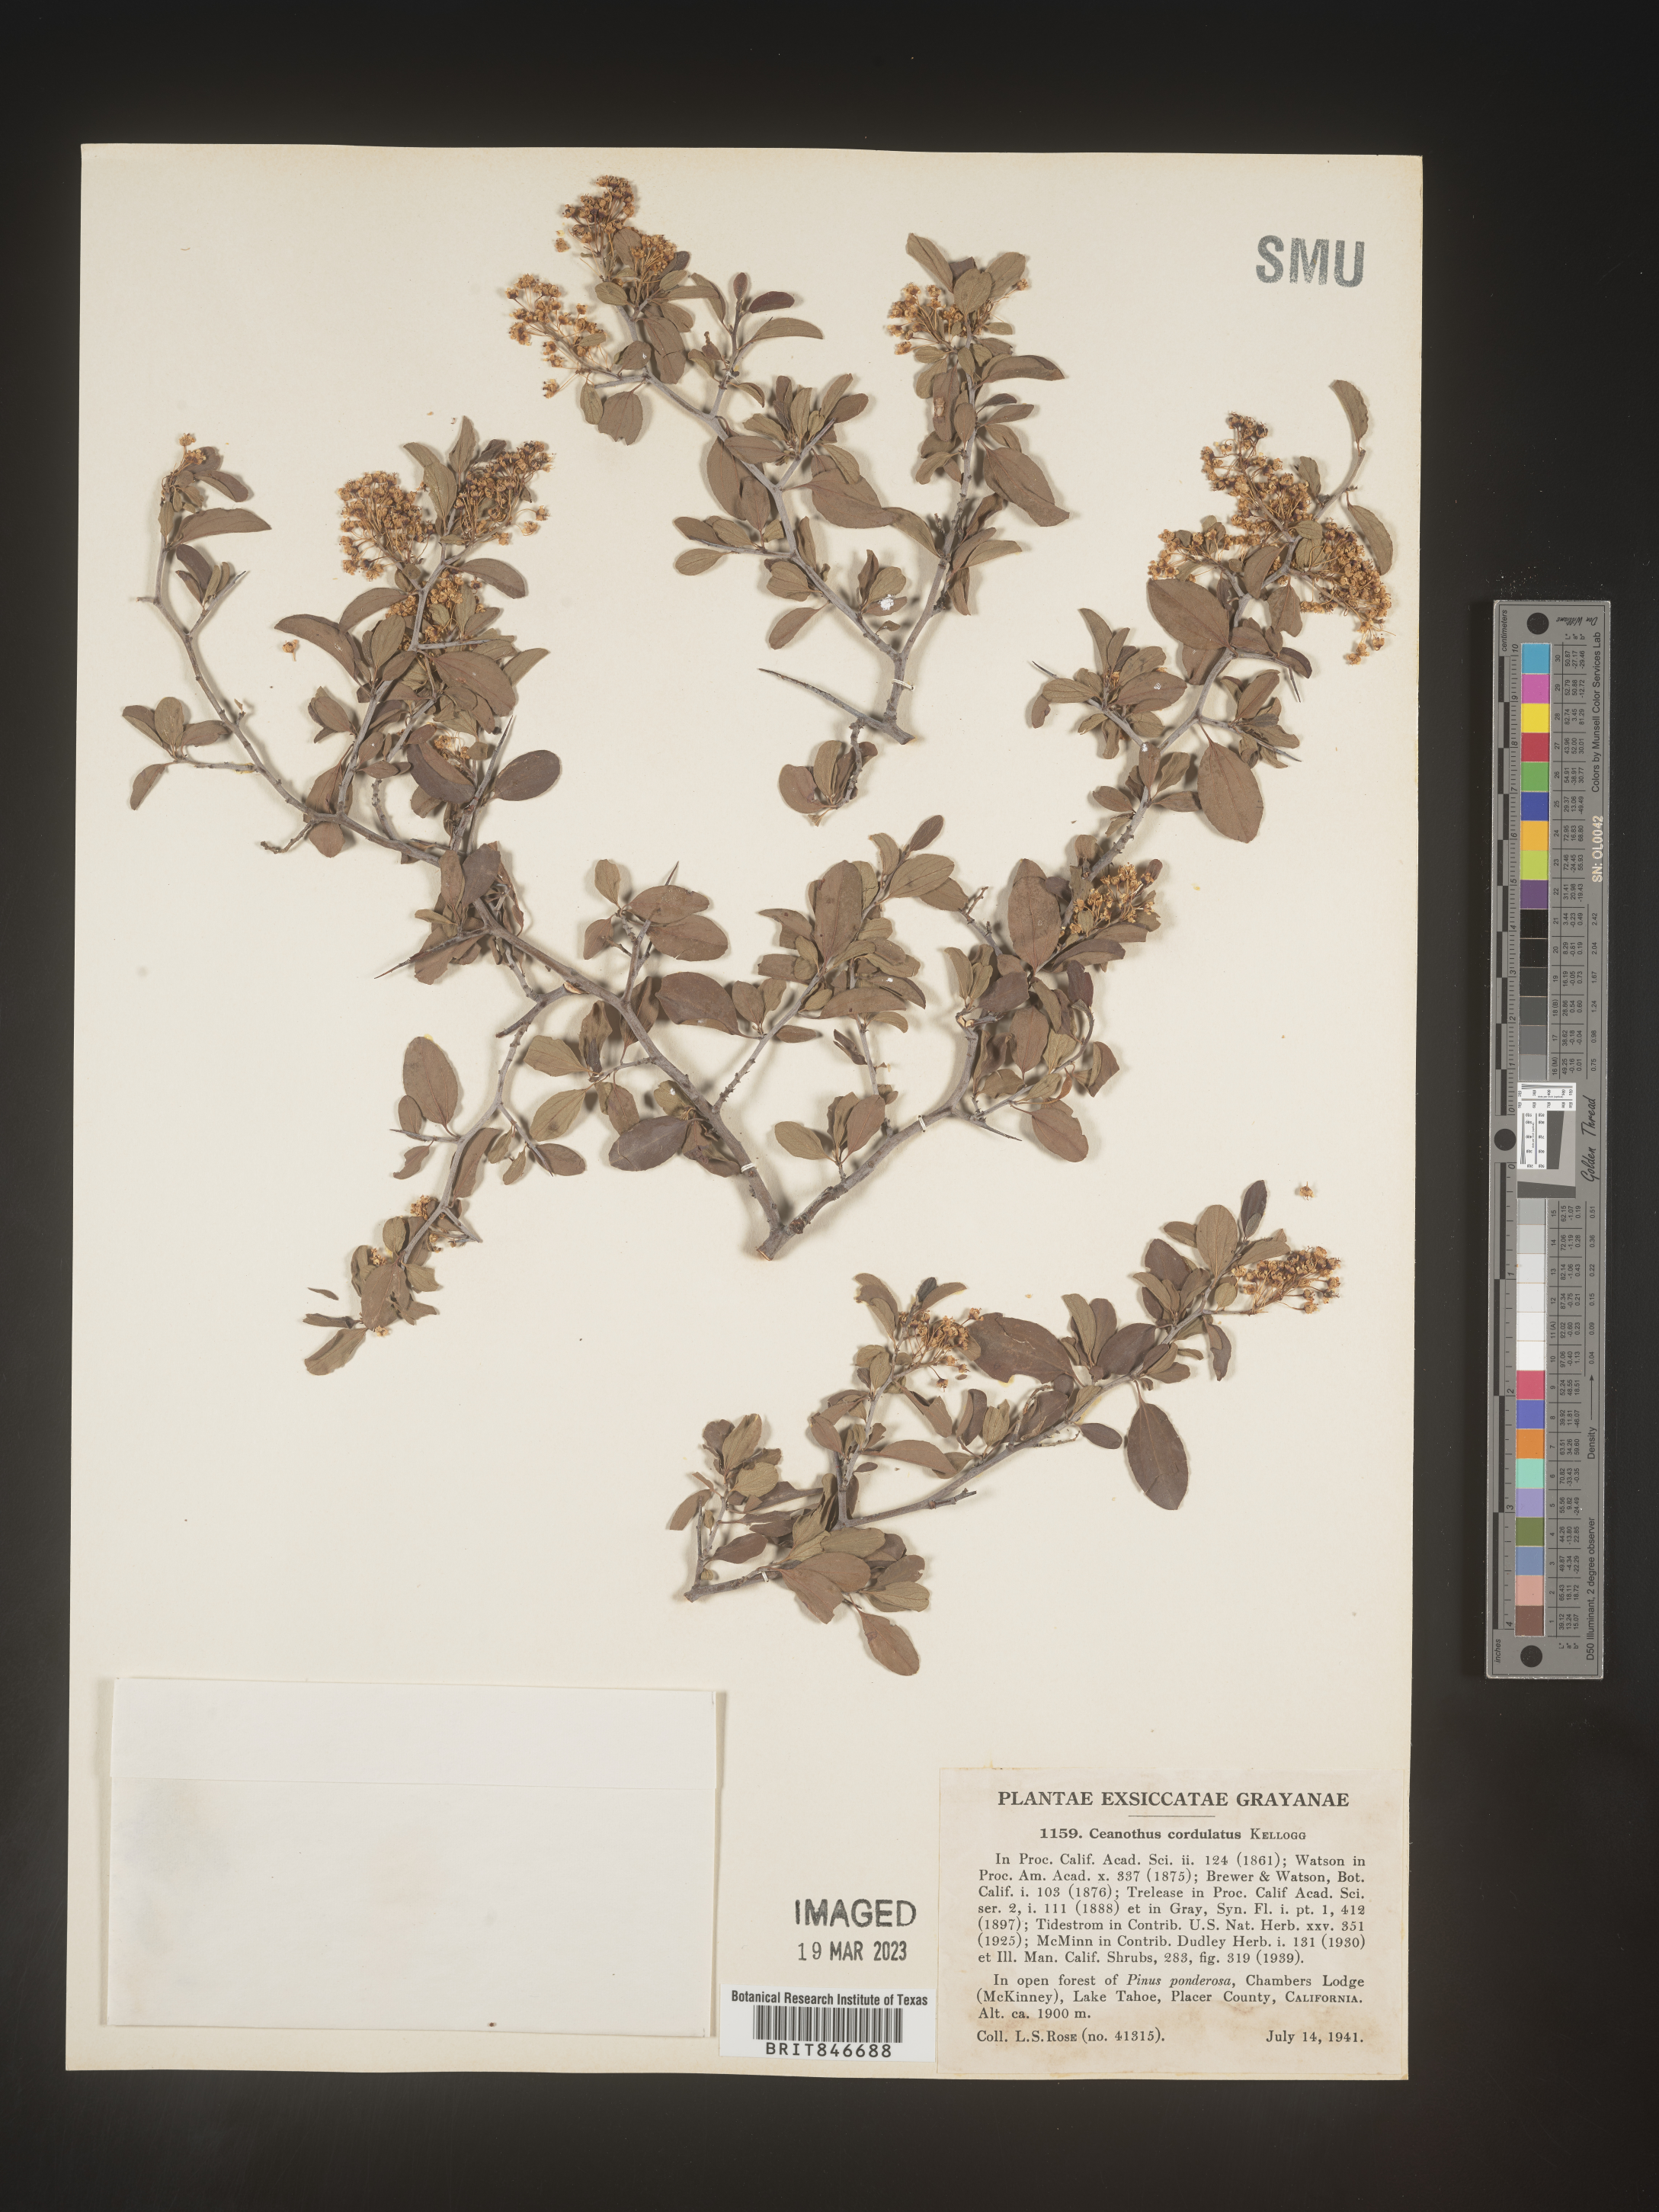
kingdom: Plantae
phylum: Tracheophyta
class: Magnoliopsida
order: Rosales
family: Rhamnaceae
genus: Ceanothus
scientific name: Ceanothus
